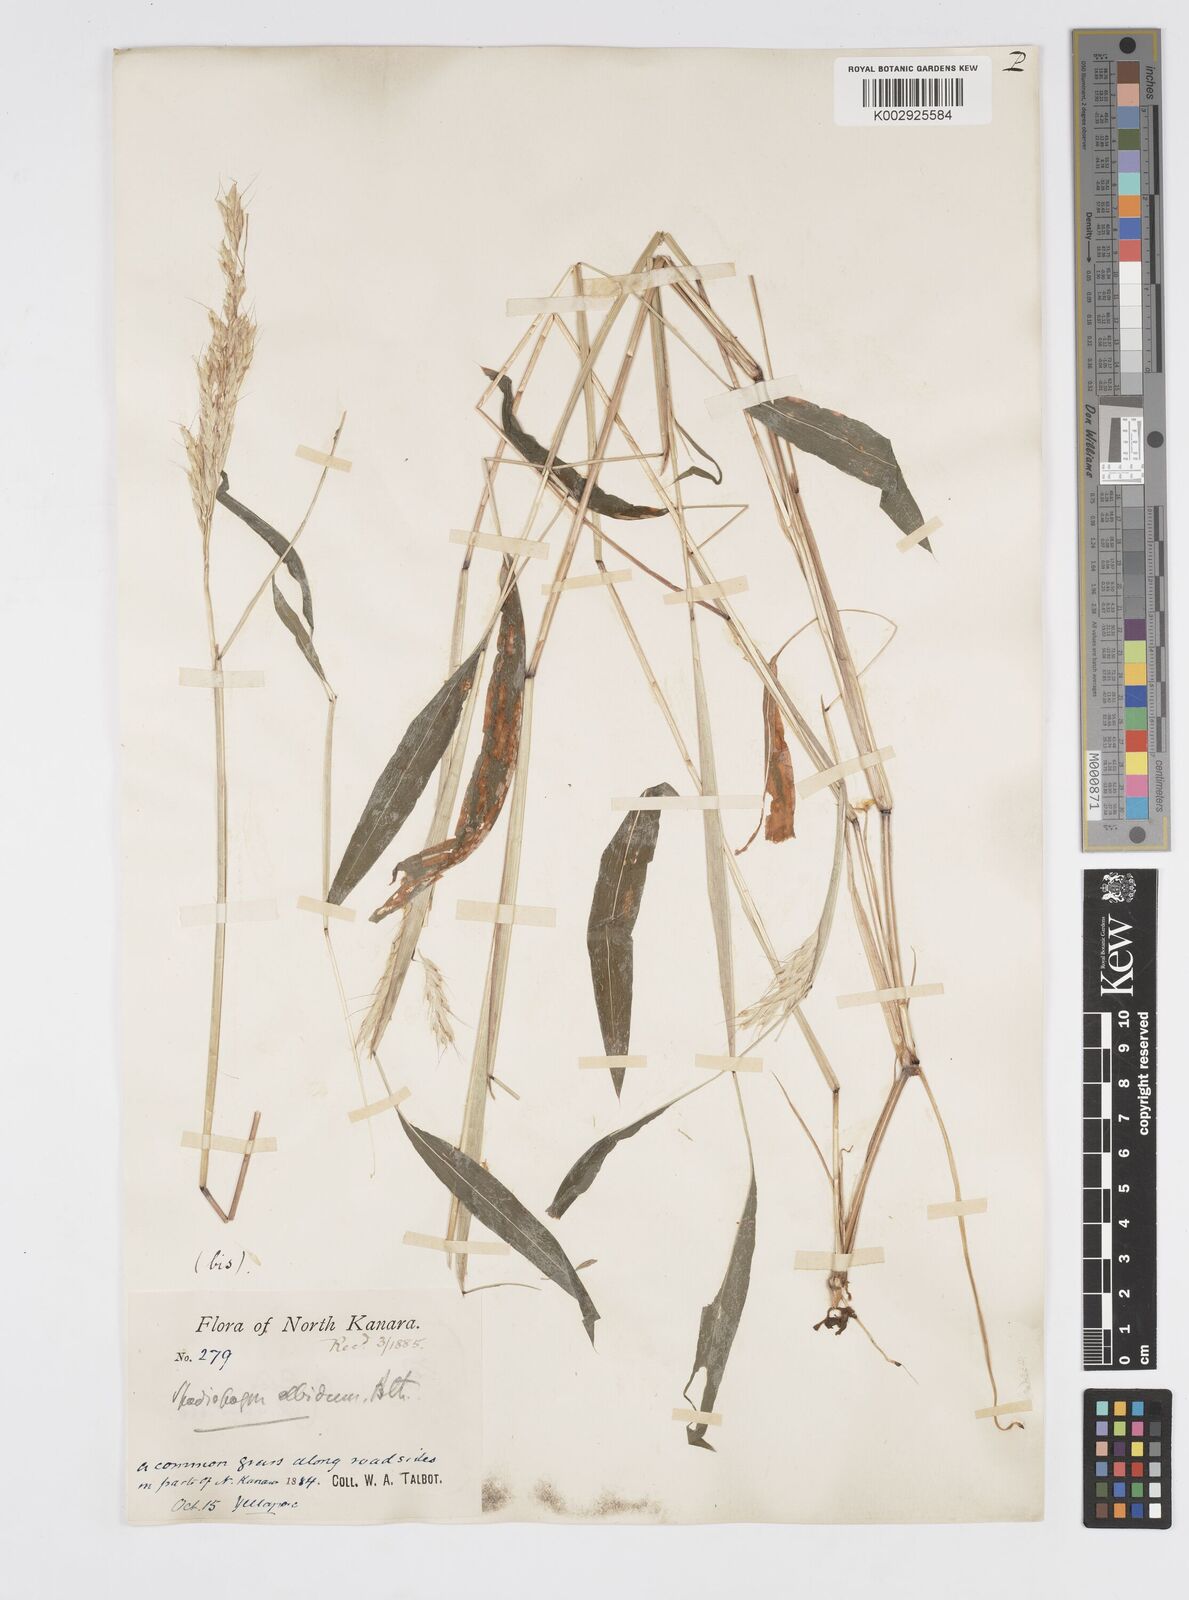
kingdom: Plantae
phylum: Tracheophyta
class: Liliopsida
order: Poales
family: Poaceae
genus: Spodiopogon
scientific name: Spodiopogon rhizophorus
